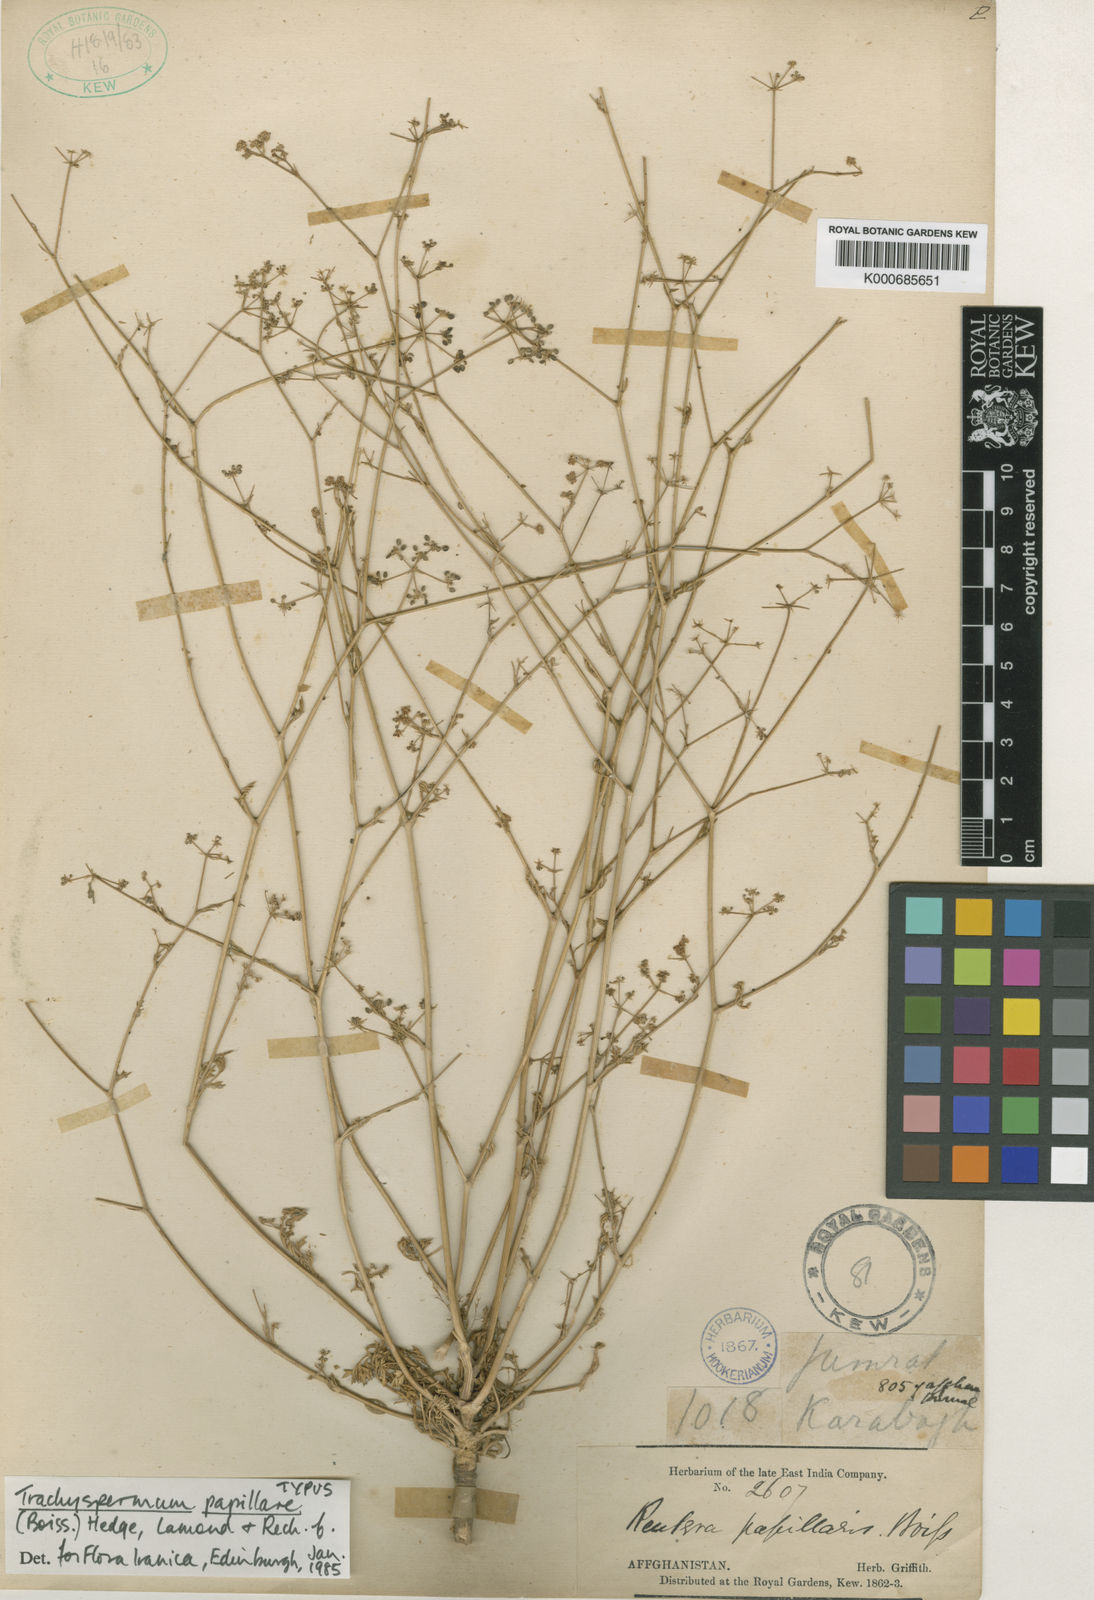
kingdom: Plantae
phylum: Tracheophyta
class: Magnoliopsida
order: Apiales
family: Apiaceae
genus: Psammogeton
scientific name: Psammogeton papillare
